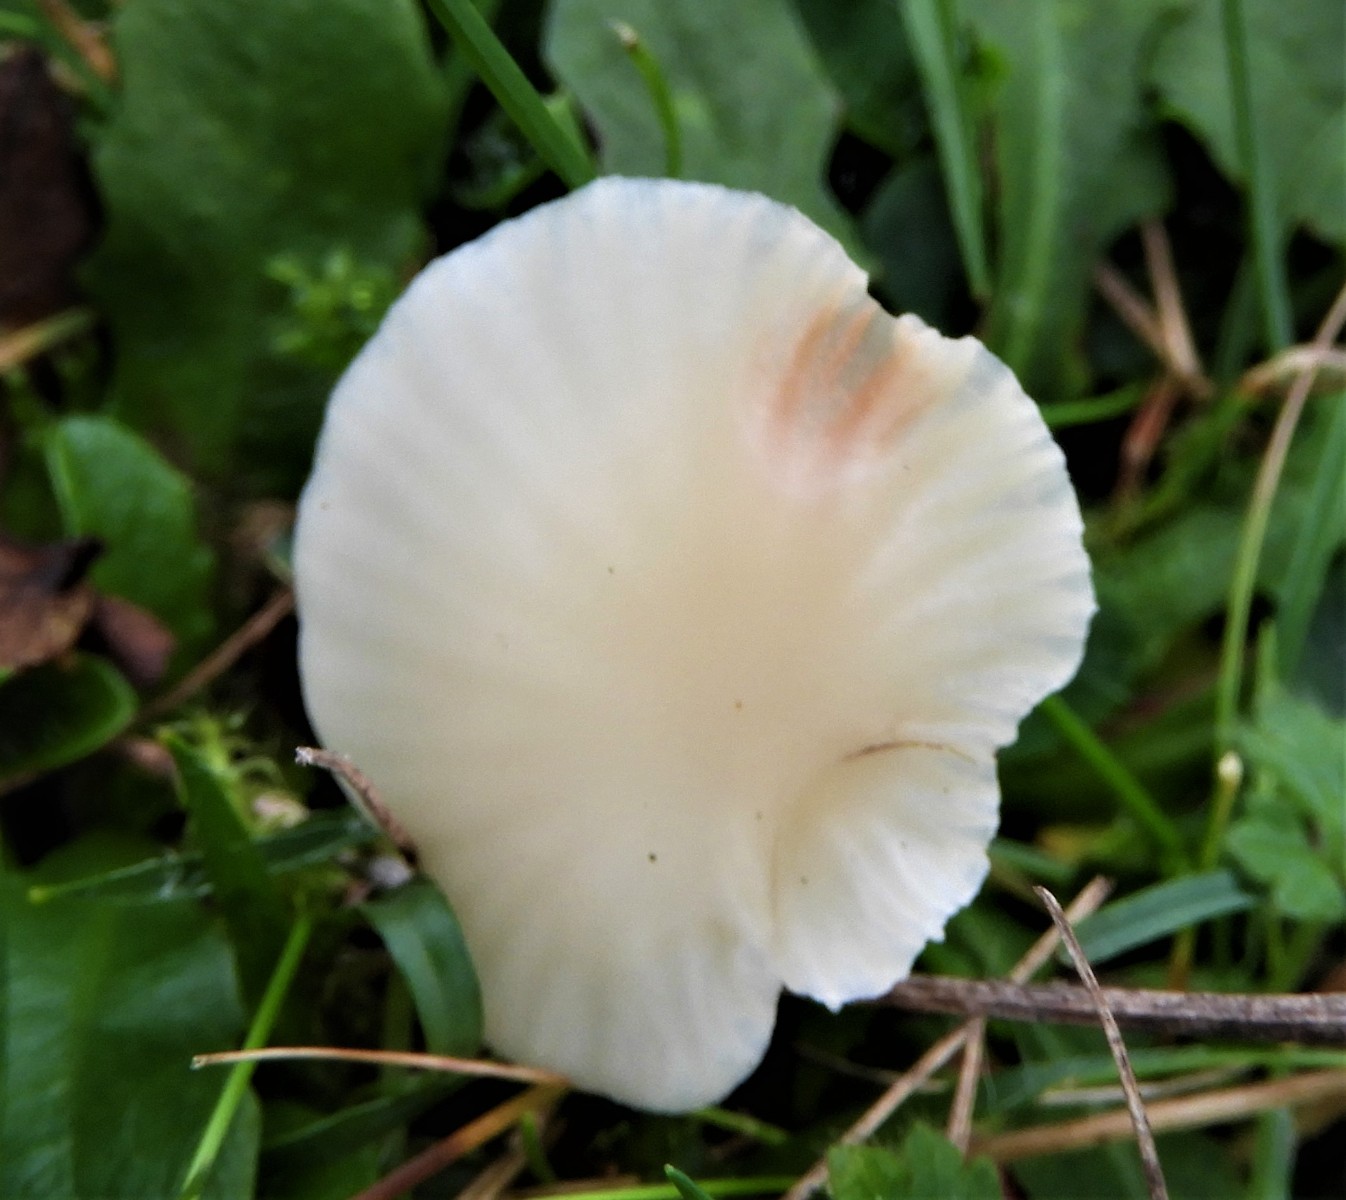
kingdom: Fungi
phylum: Basidiomycota
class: Agaricomycetes
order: Agaricales
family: Hygrophoraceae
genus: Cuphophyllus
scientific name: Cuphophyllus russocoriaceus
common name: ruslæder-vokshat
